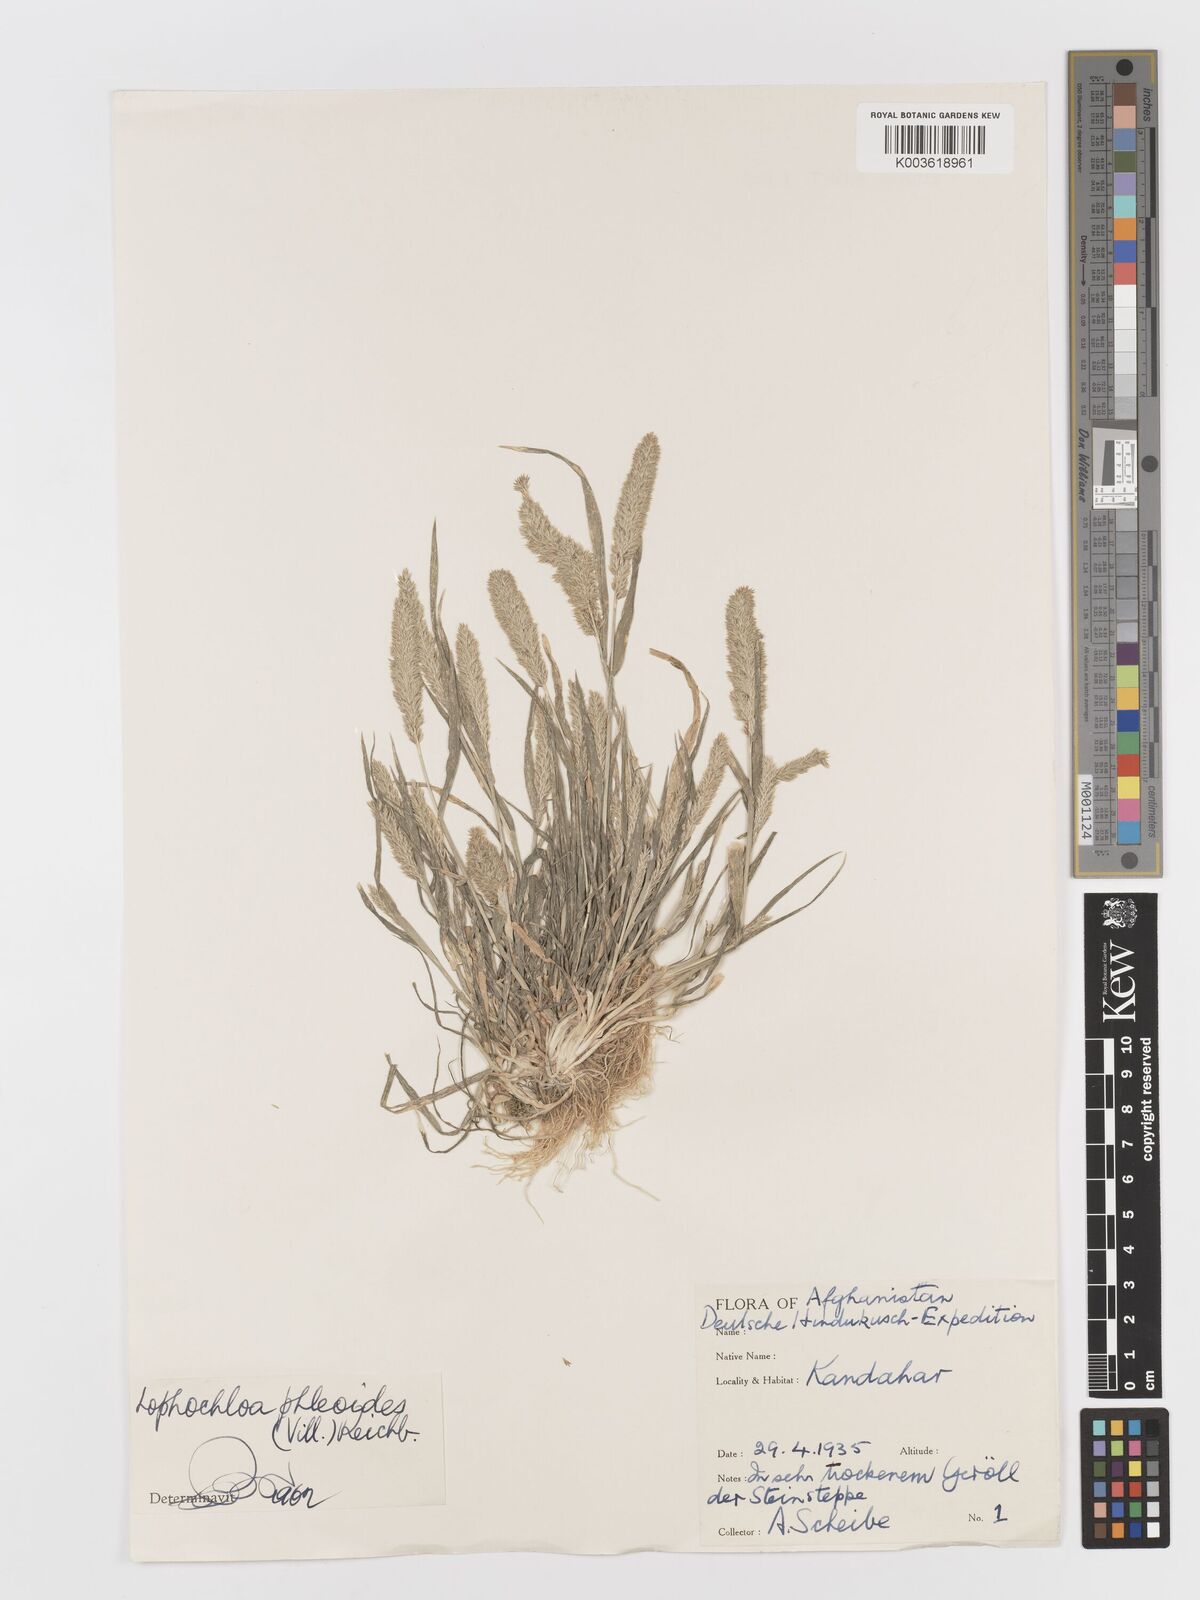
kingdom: Plantae
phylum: Tracheophyta
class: Liliopsida
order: Poales
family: Poaceae
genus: Rostraria
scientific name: Rostraria cristata
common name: Mediterranean hair-grass
